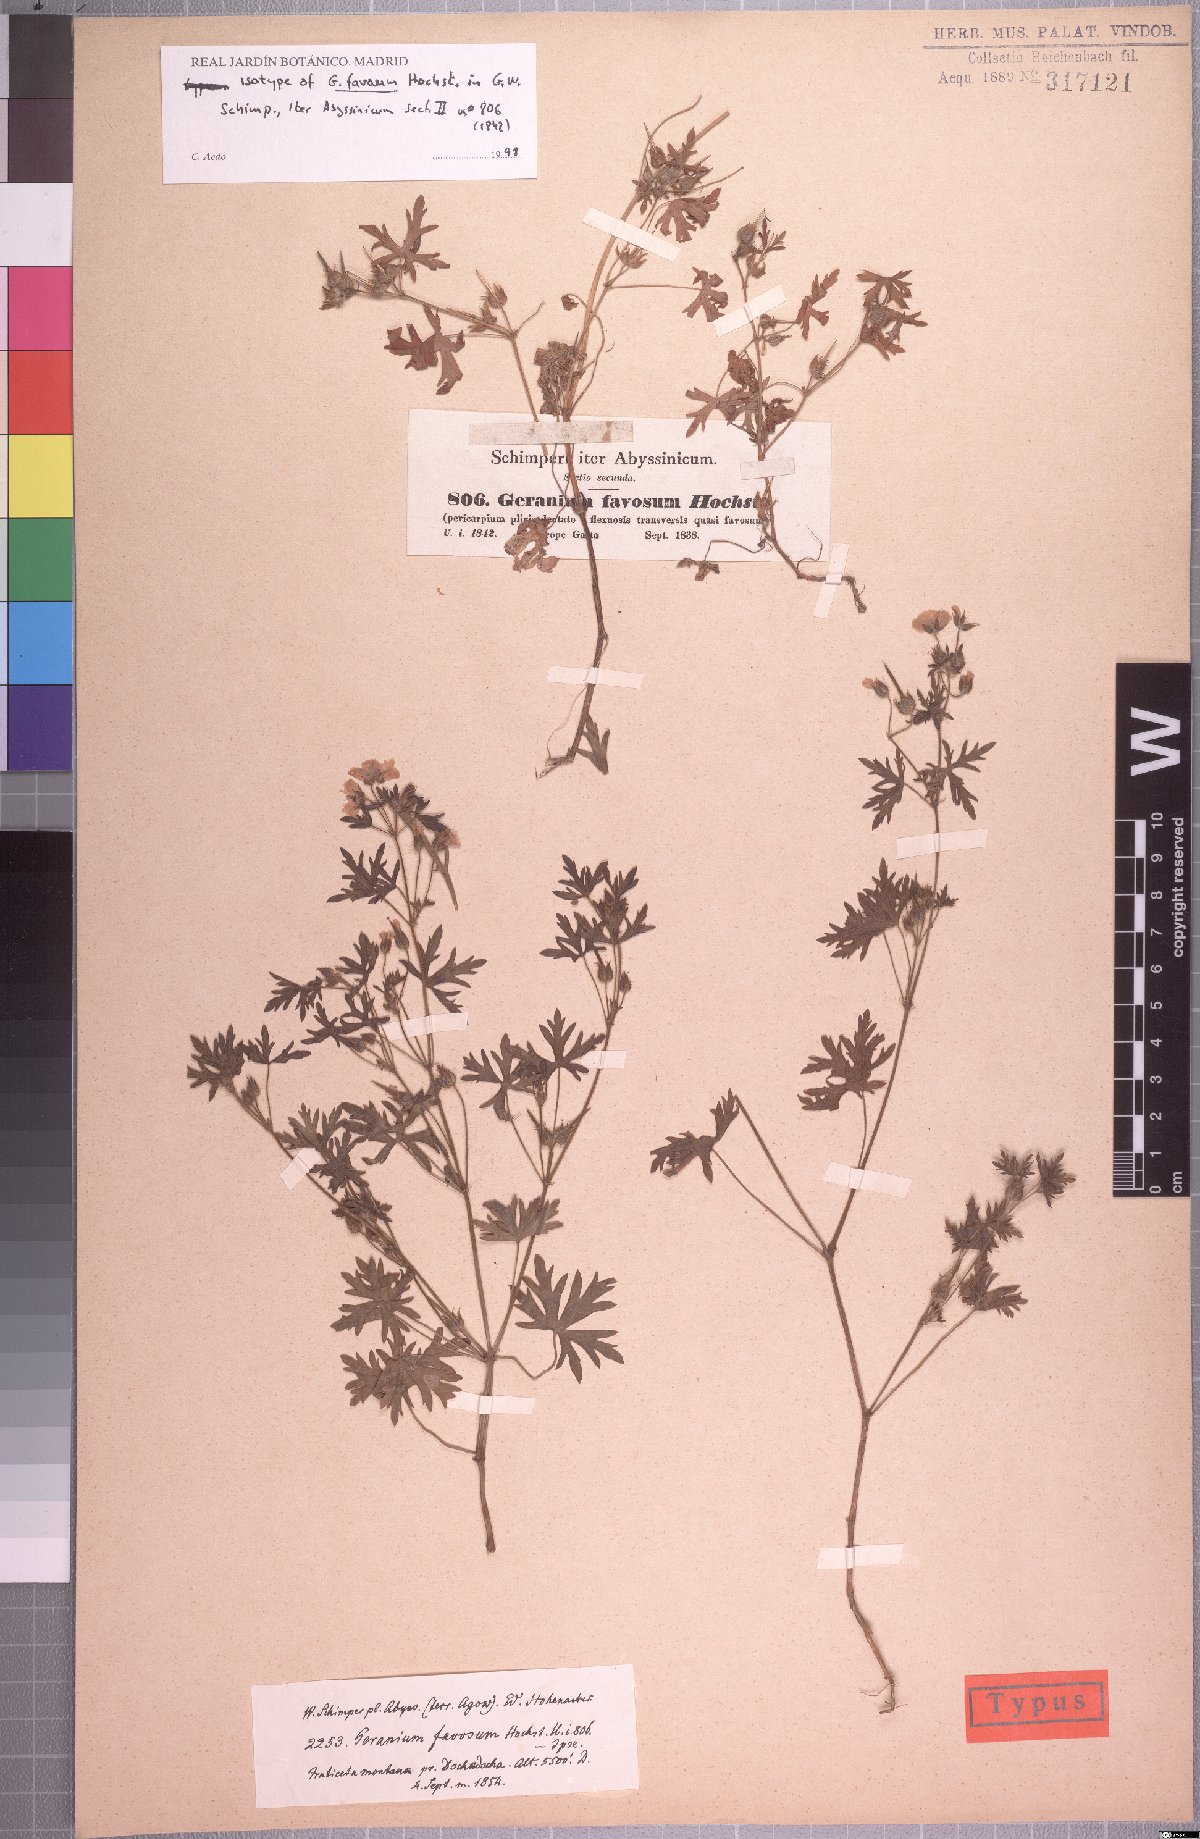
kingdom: Plantae
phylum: Tracheophyta
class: Magnoliopsida
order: Geraniales
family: Geraniaceae
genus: Geranium
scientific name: Geranium favosum
